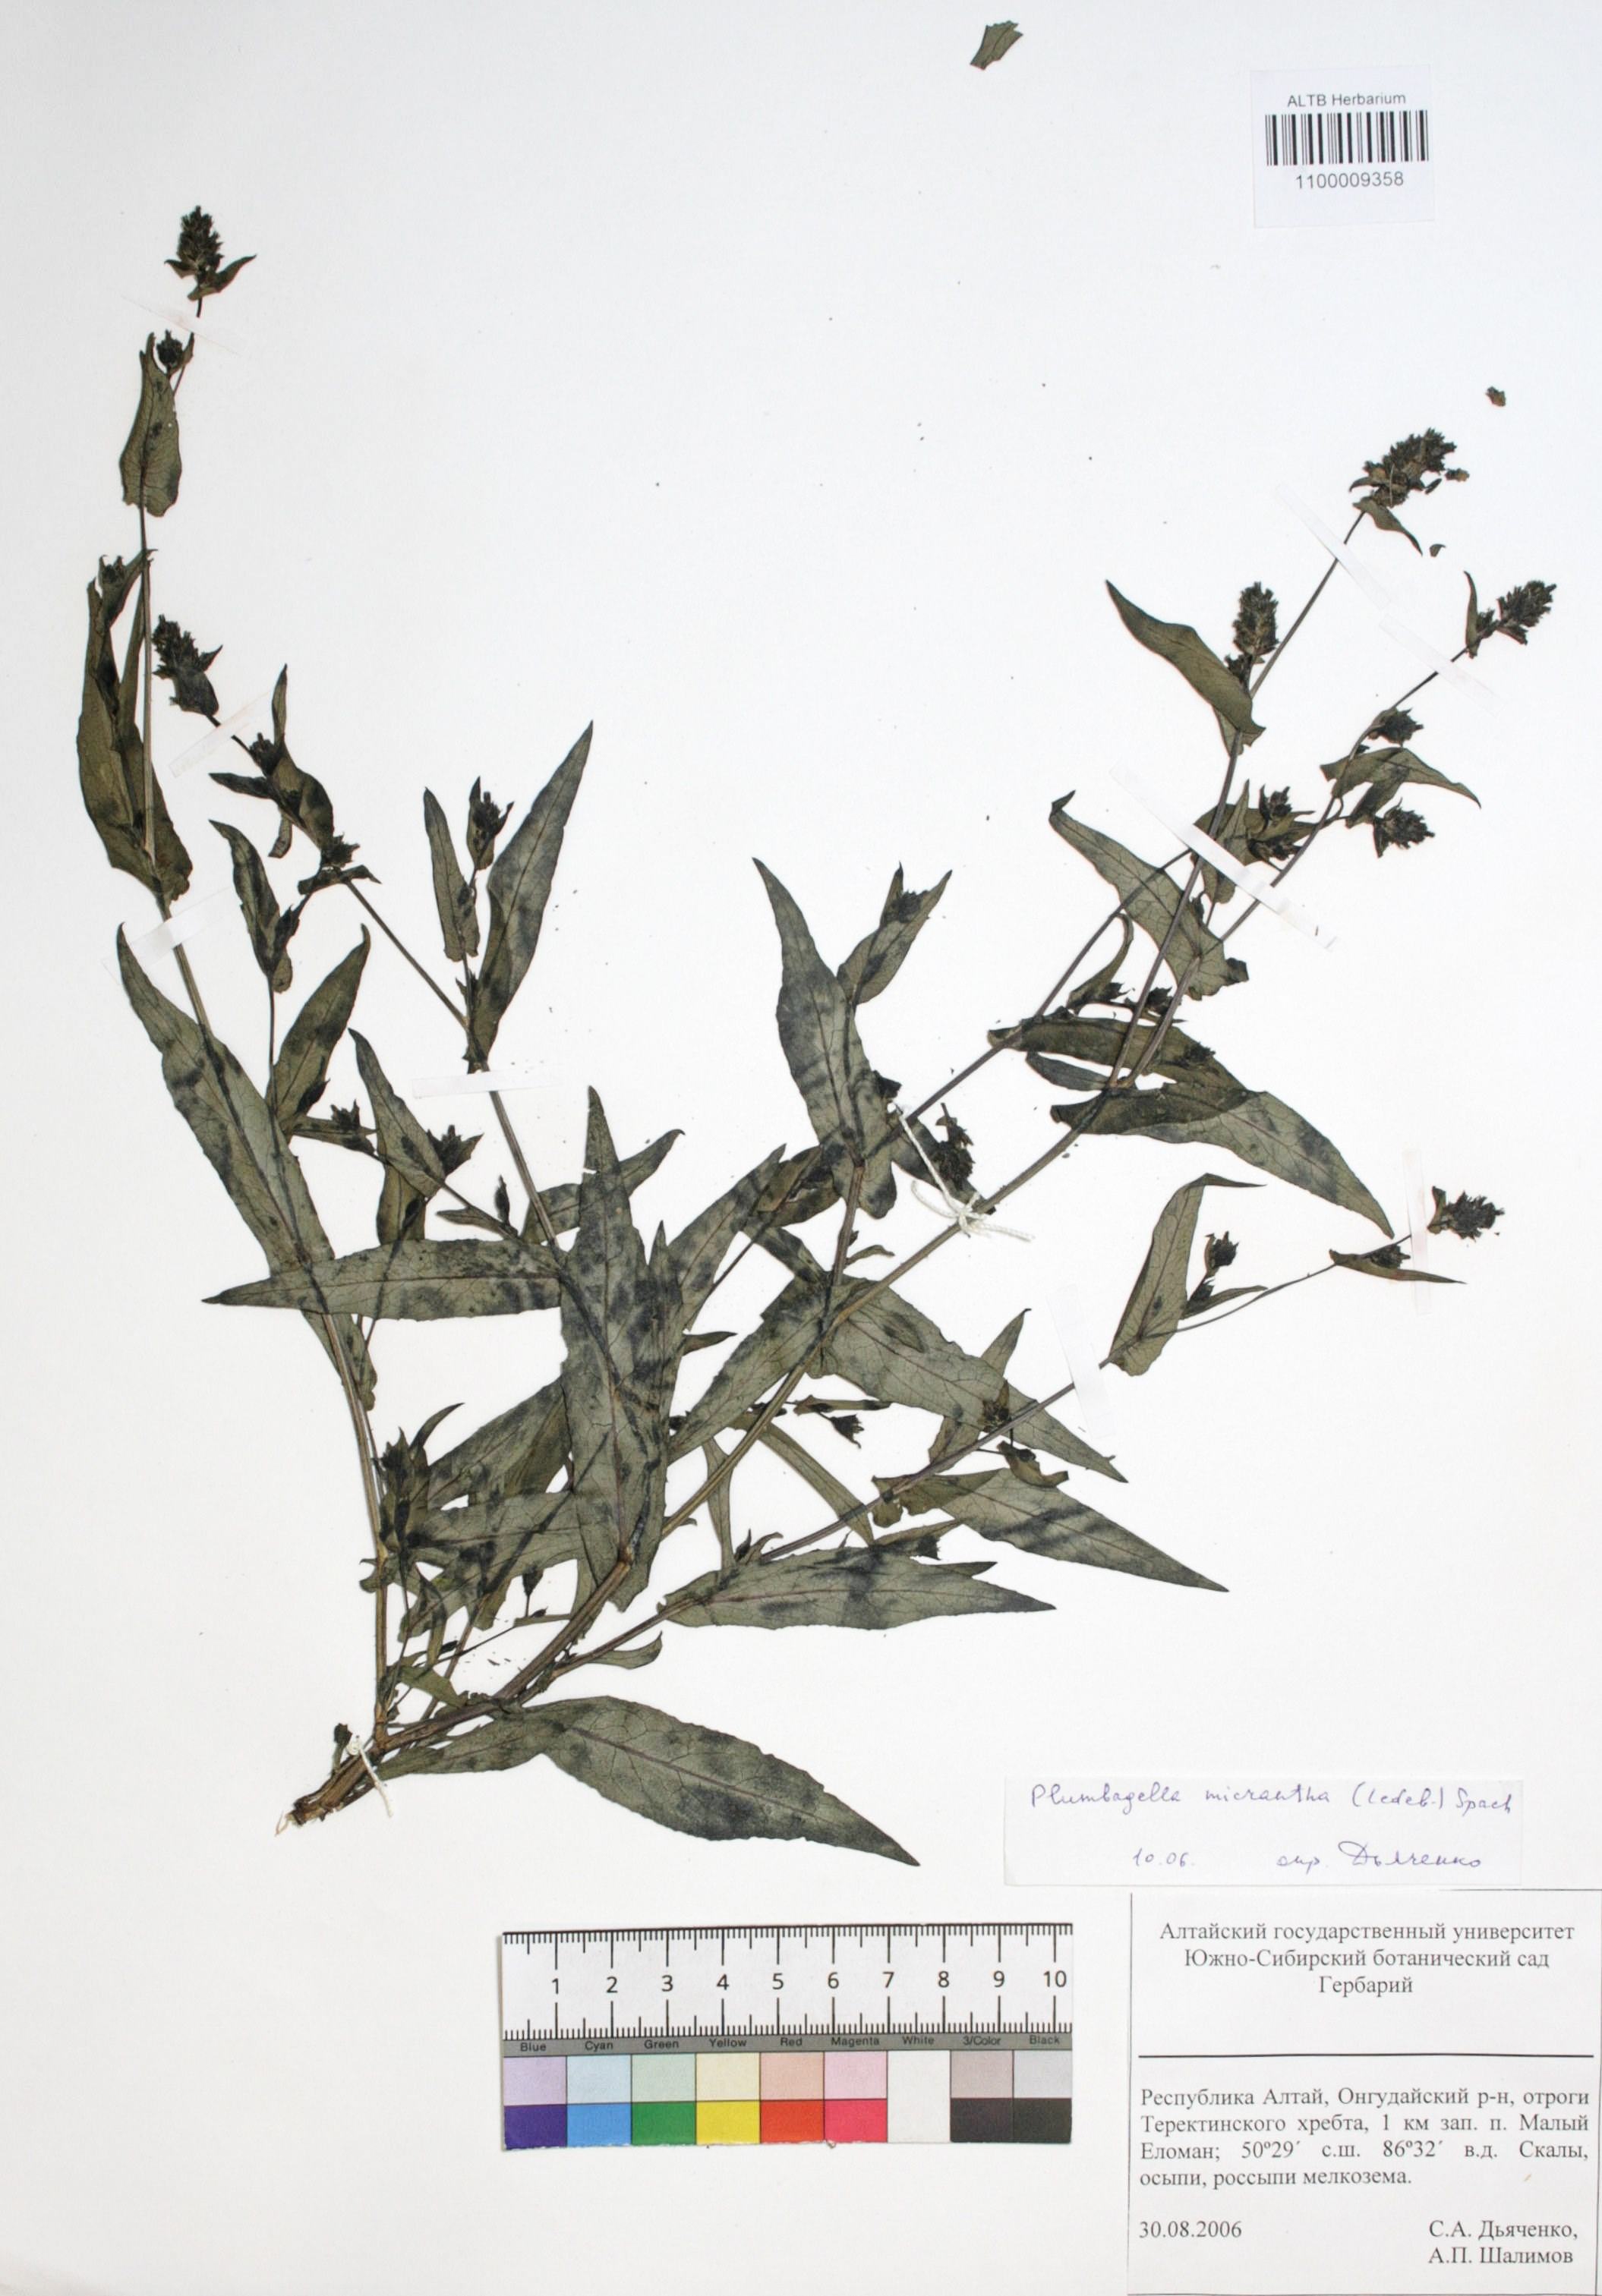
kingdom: Plantae
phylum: Tracheophyta
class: Magnoliopsida
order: Caryophyllales
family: Plumbaginaceae
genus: Plumbagella
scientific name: Plumbagella micrantha
